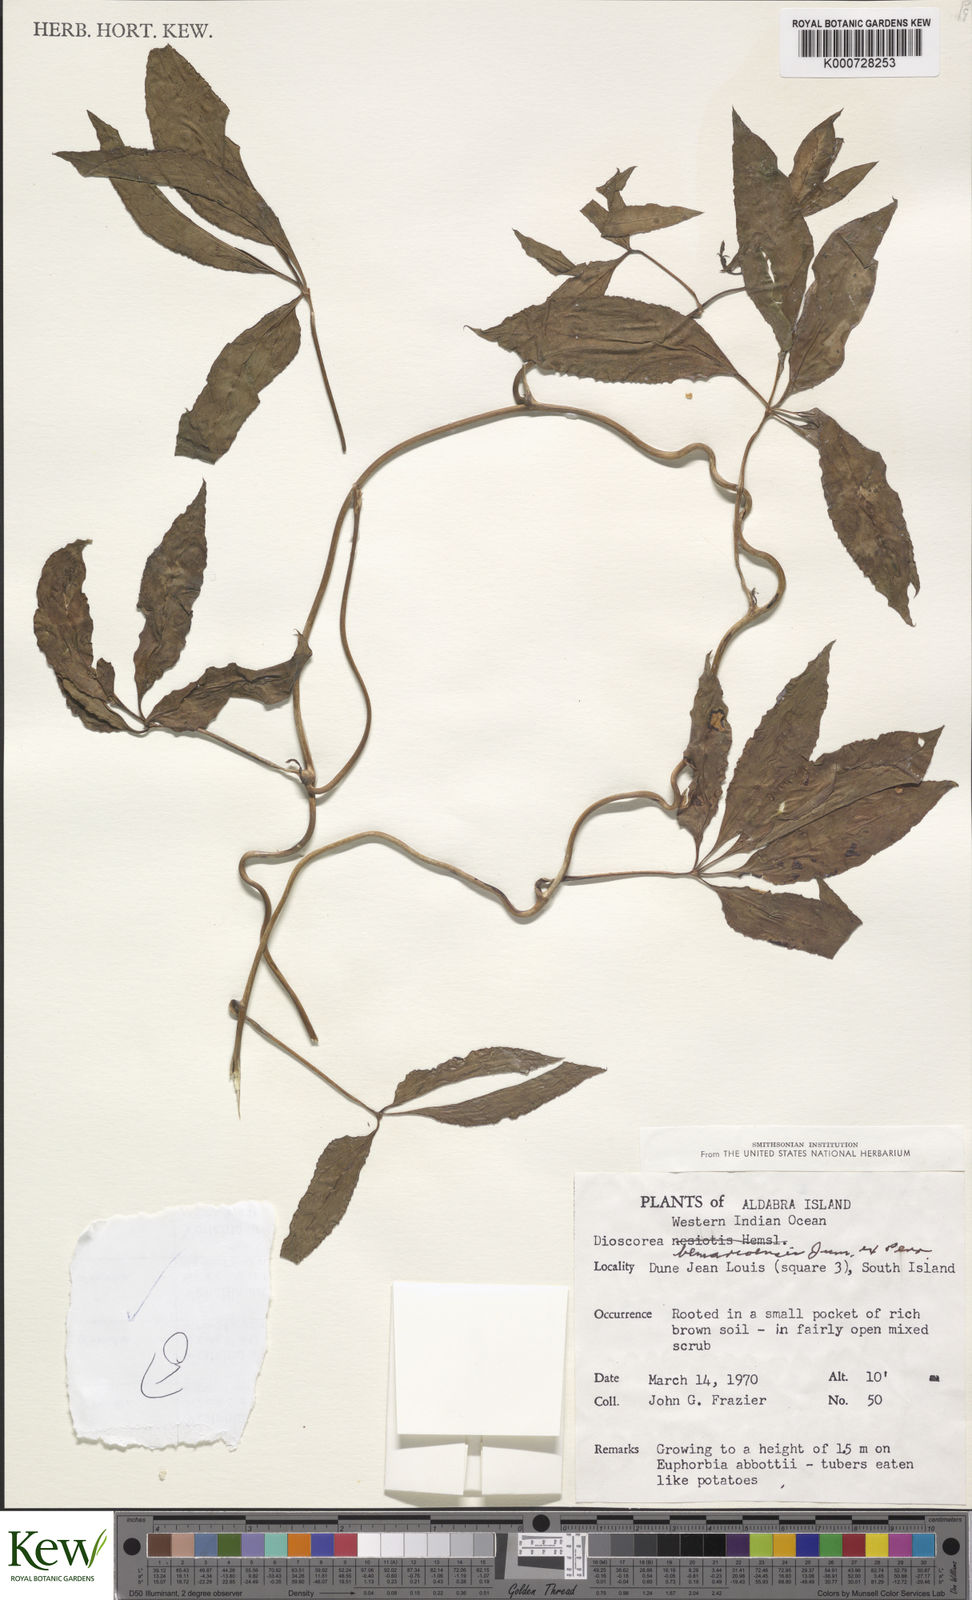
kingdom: Plantae
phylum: Tracheophyta
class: Liliopsida
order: Dioscoreales
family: Dioscoreaceae
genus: Dioscorea
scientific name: Dioscorea bemarivensis
